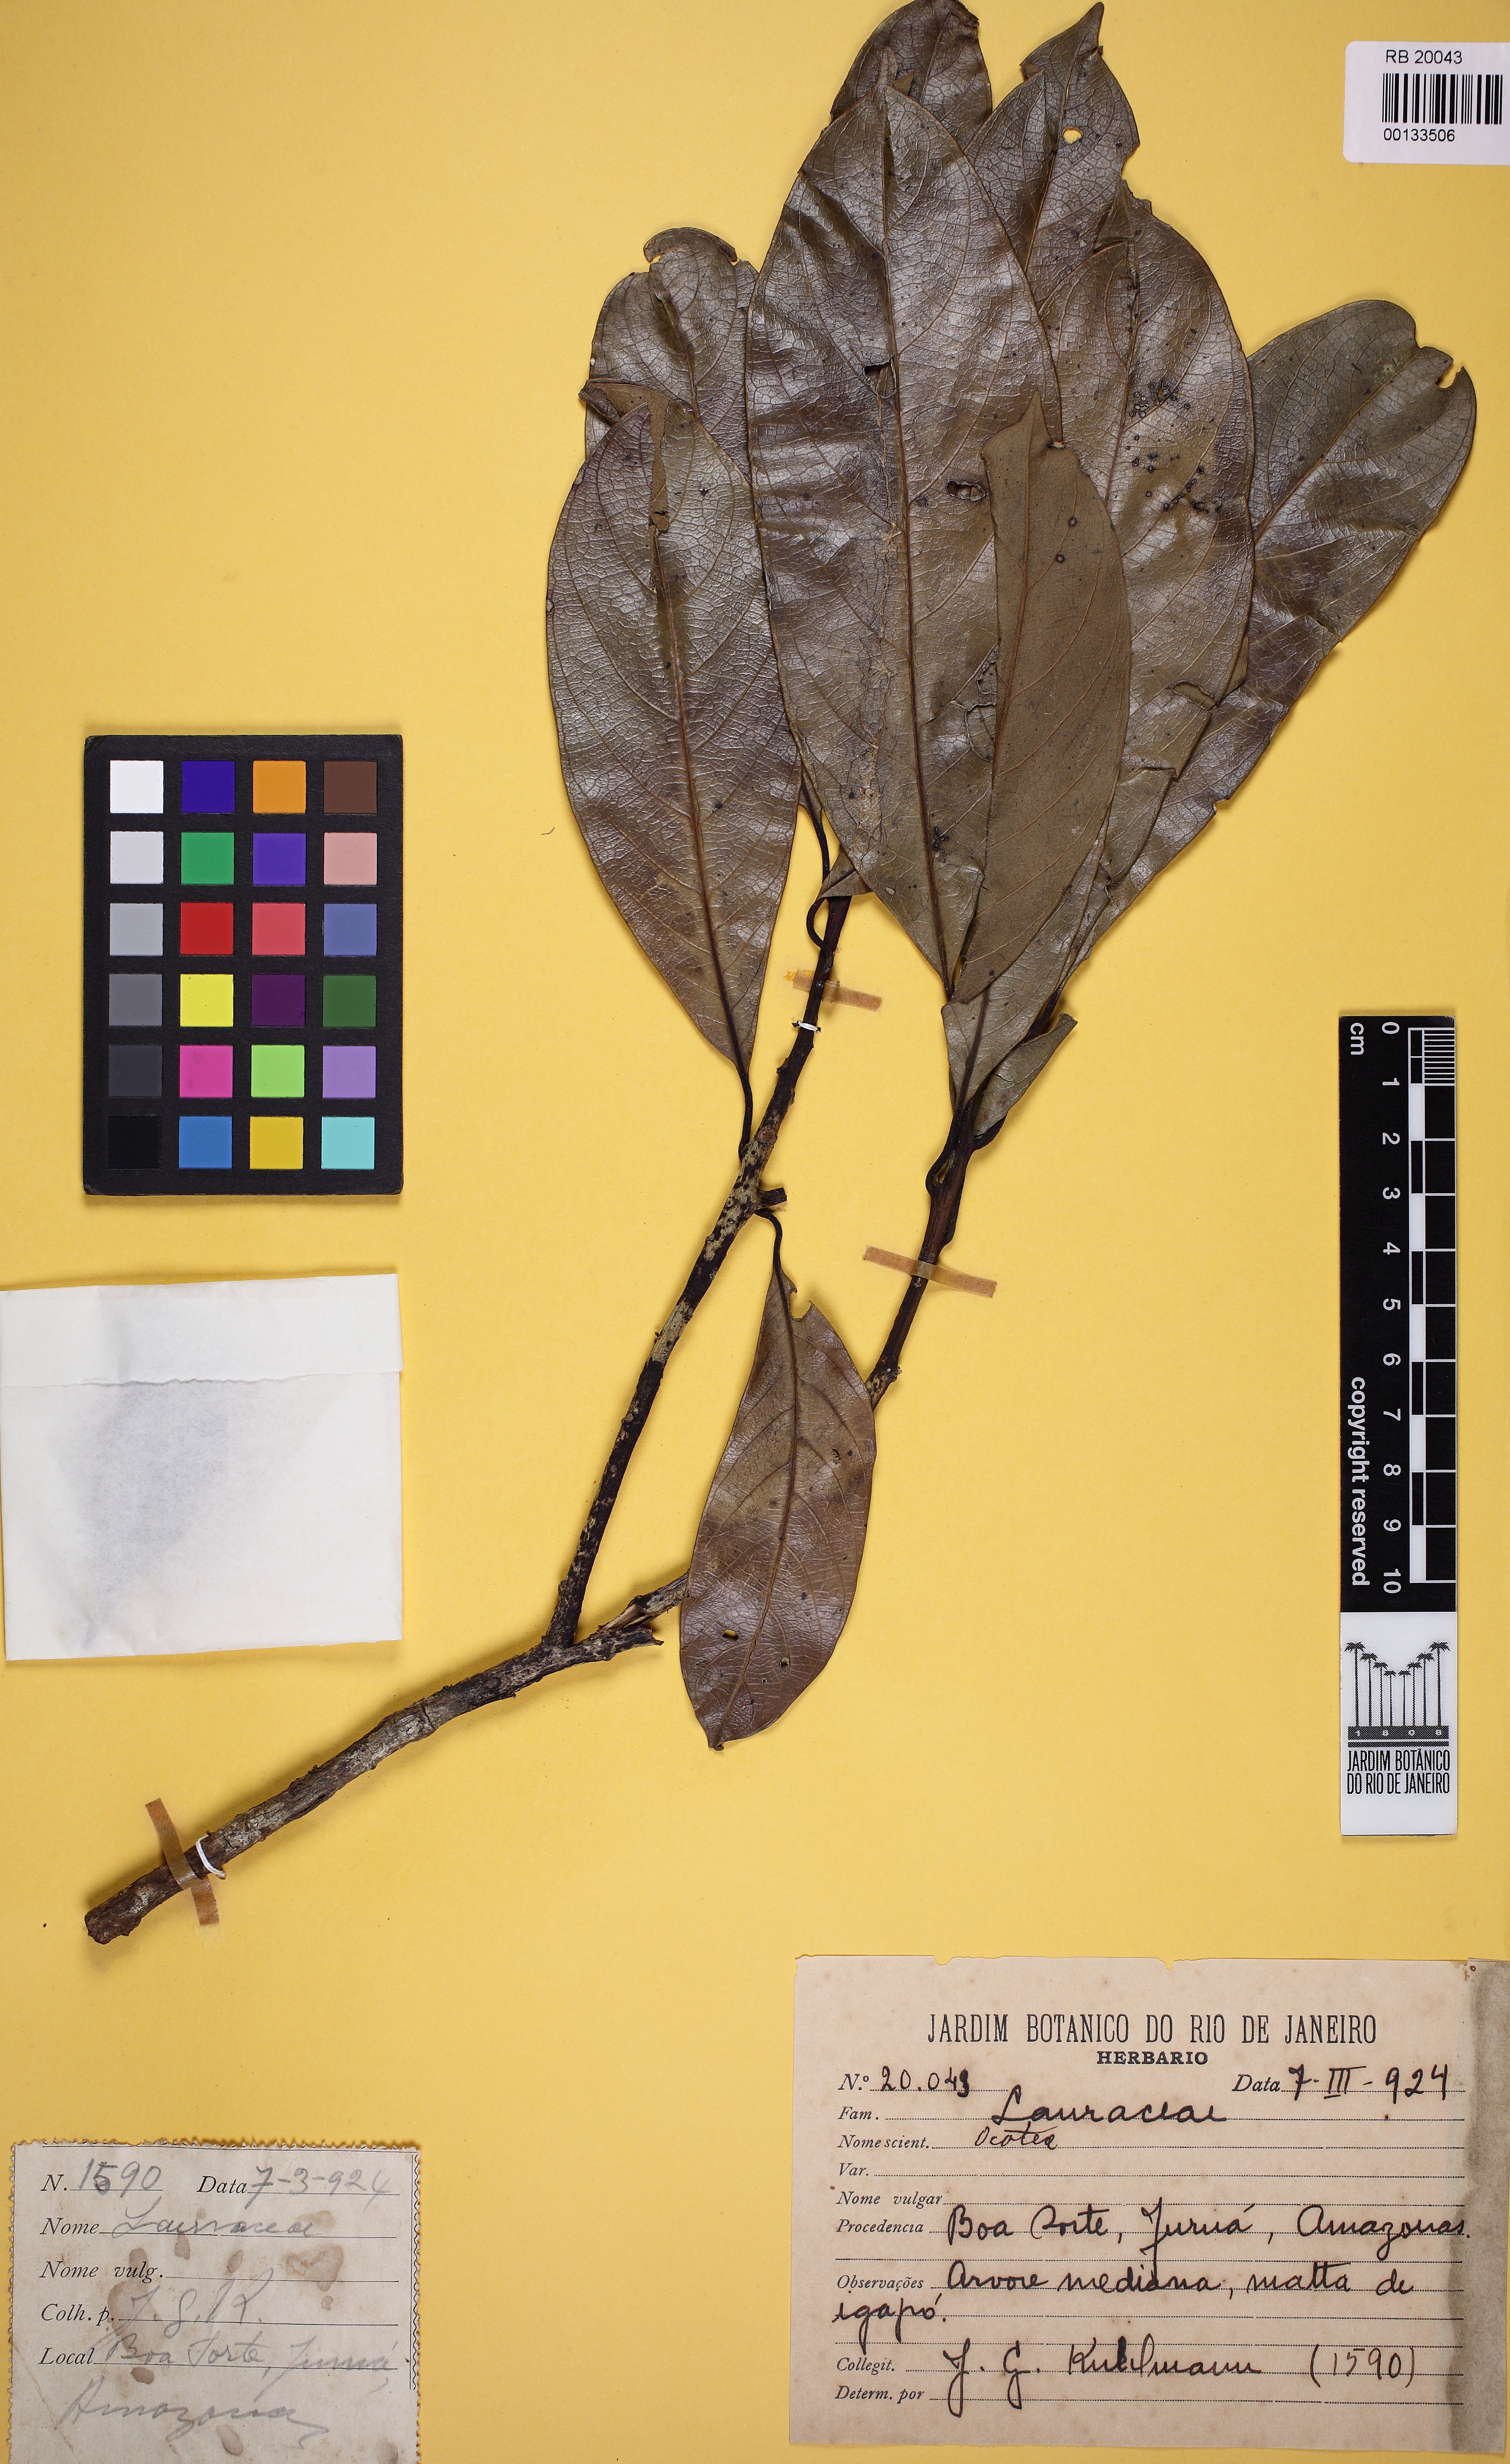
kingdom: Plantae
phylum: Tracheophyta
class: Magnoliopsida
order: Laurales
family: Lauraceae
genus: Ocotea
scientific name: Ocotea
